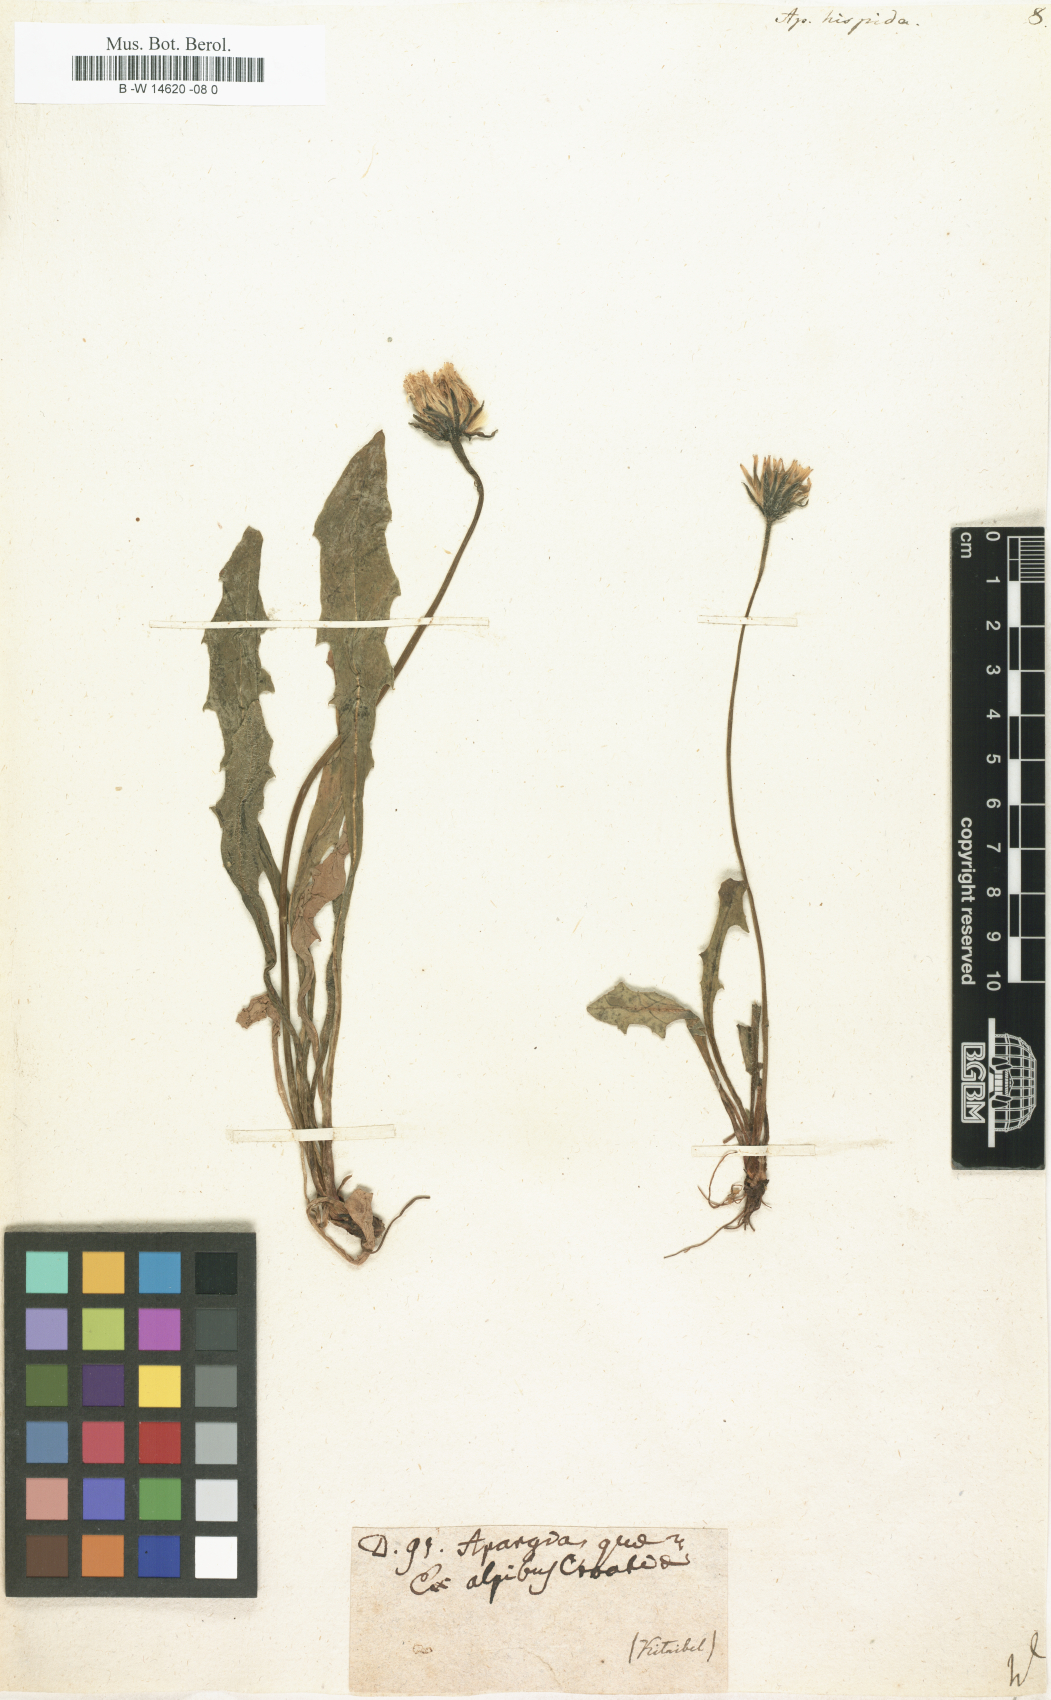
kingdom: Plantae
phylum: Tracheophyta
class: Magnoliopsida
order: Asterales
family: Asteraceae
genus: Leontodon
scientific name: Leontodon
